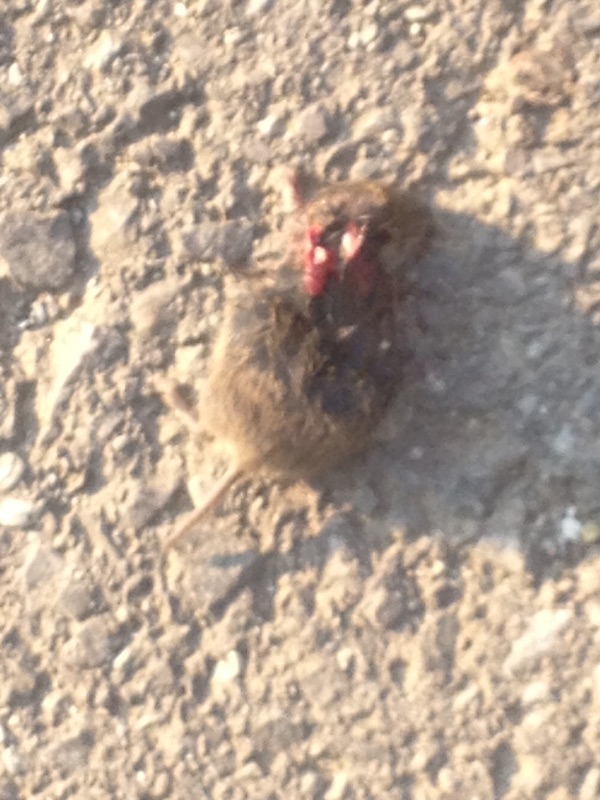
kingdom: Animalia
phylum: Chordata
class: Mammalia
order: Rodentia
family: Cricetidae
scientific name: Cricetidae
